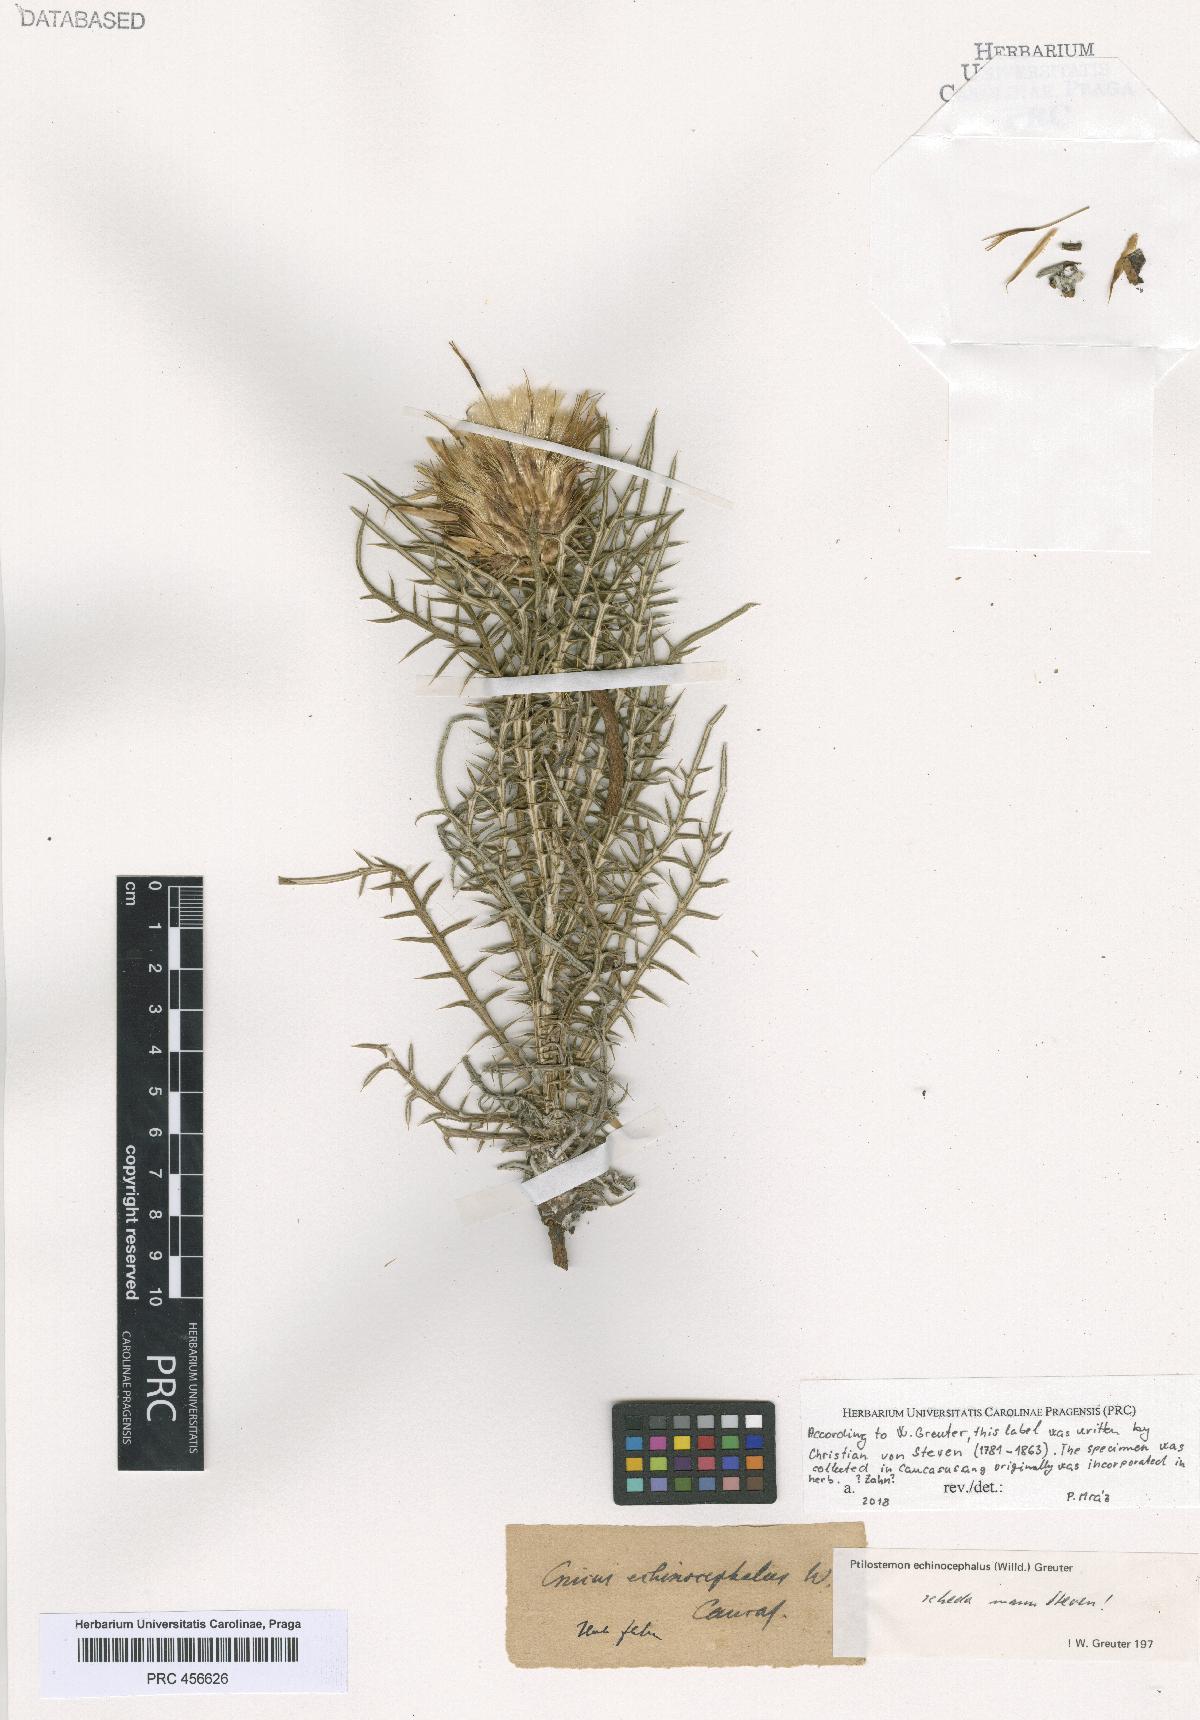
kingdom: Plantae
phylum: Tracheophyta
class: Magnoliopsida
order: Asterales
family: Asteraceae
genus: Ptilostemon
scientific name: Ptilostemon echinocephalus
